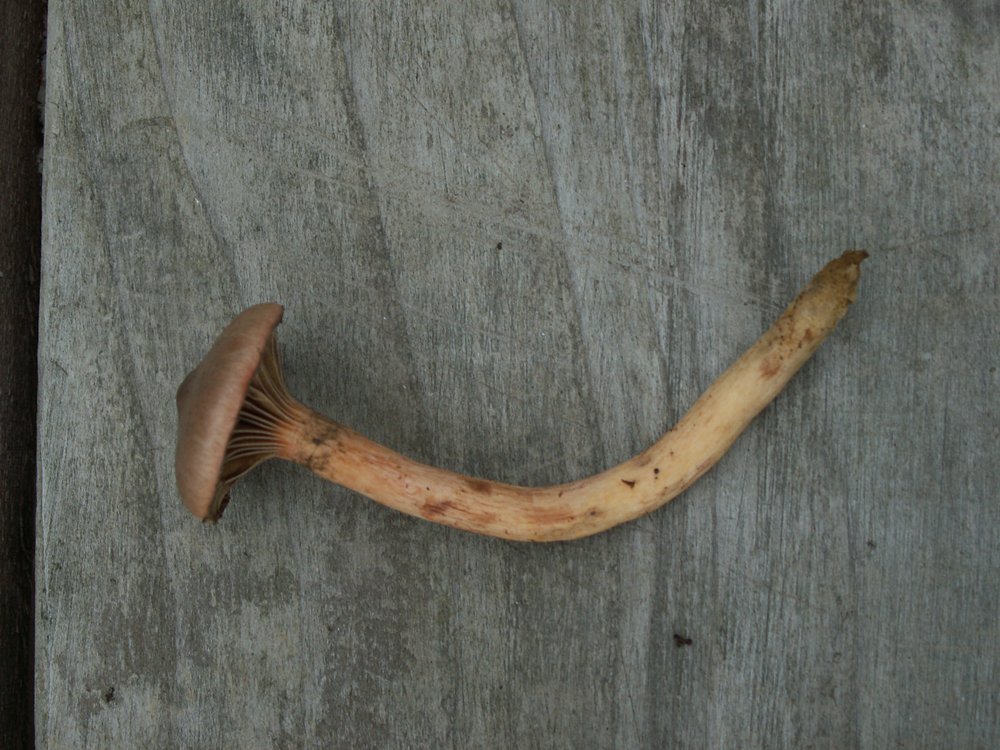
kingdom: Fungi
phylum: Basidiomycota
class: Agaricomycetes
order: Boletales
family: Gomphidiaceae
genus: Chroogomphus
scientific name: Chroogomphus rutilus
